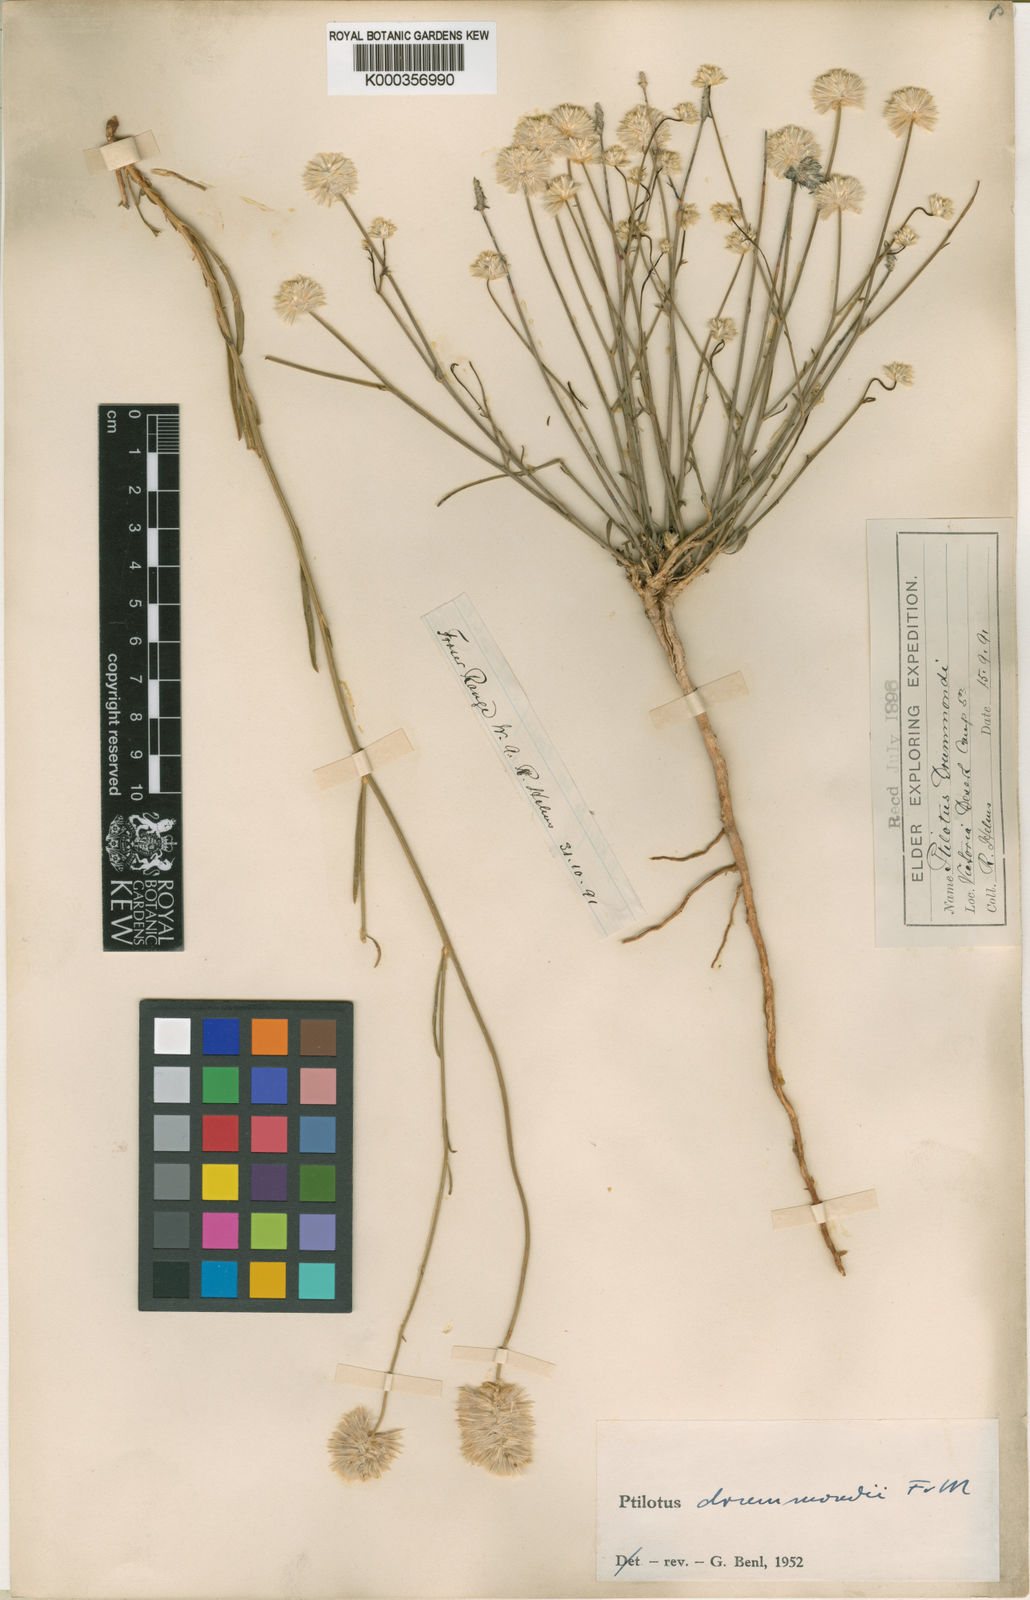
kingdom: Plantae
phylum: Tracheophyta
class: Magnoliopsida
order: Caryophyllales
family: Amaranthaceae
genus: Ptilotus
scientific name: Ptilotus drummondii
